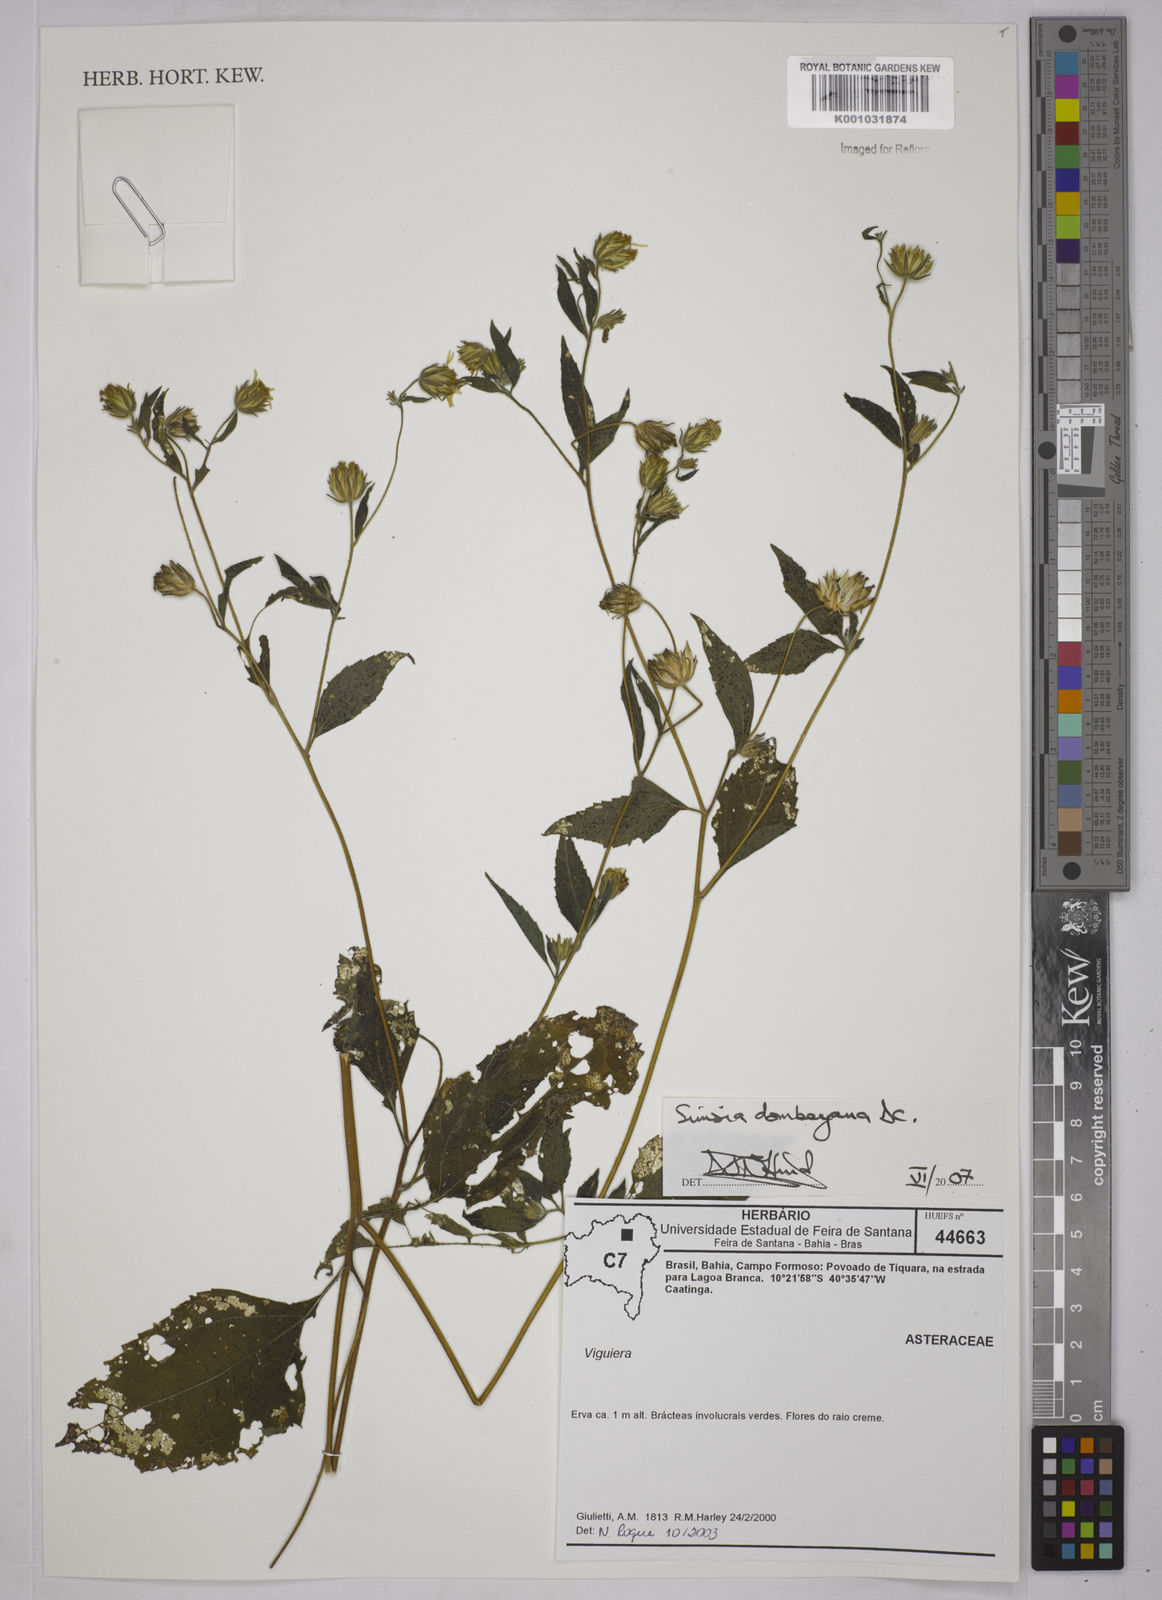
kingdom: Plantae
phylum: Tracheophyta
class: Magnoliopsida
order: Asterales
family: Asteraceae
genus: Simsia
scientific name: Simsia dombeyana
